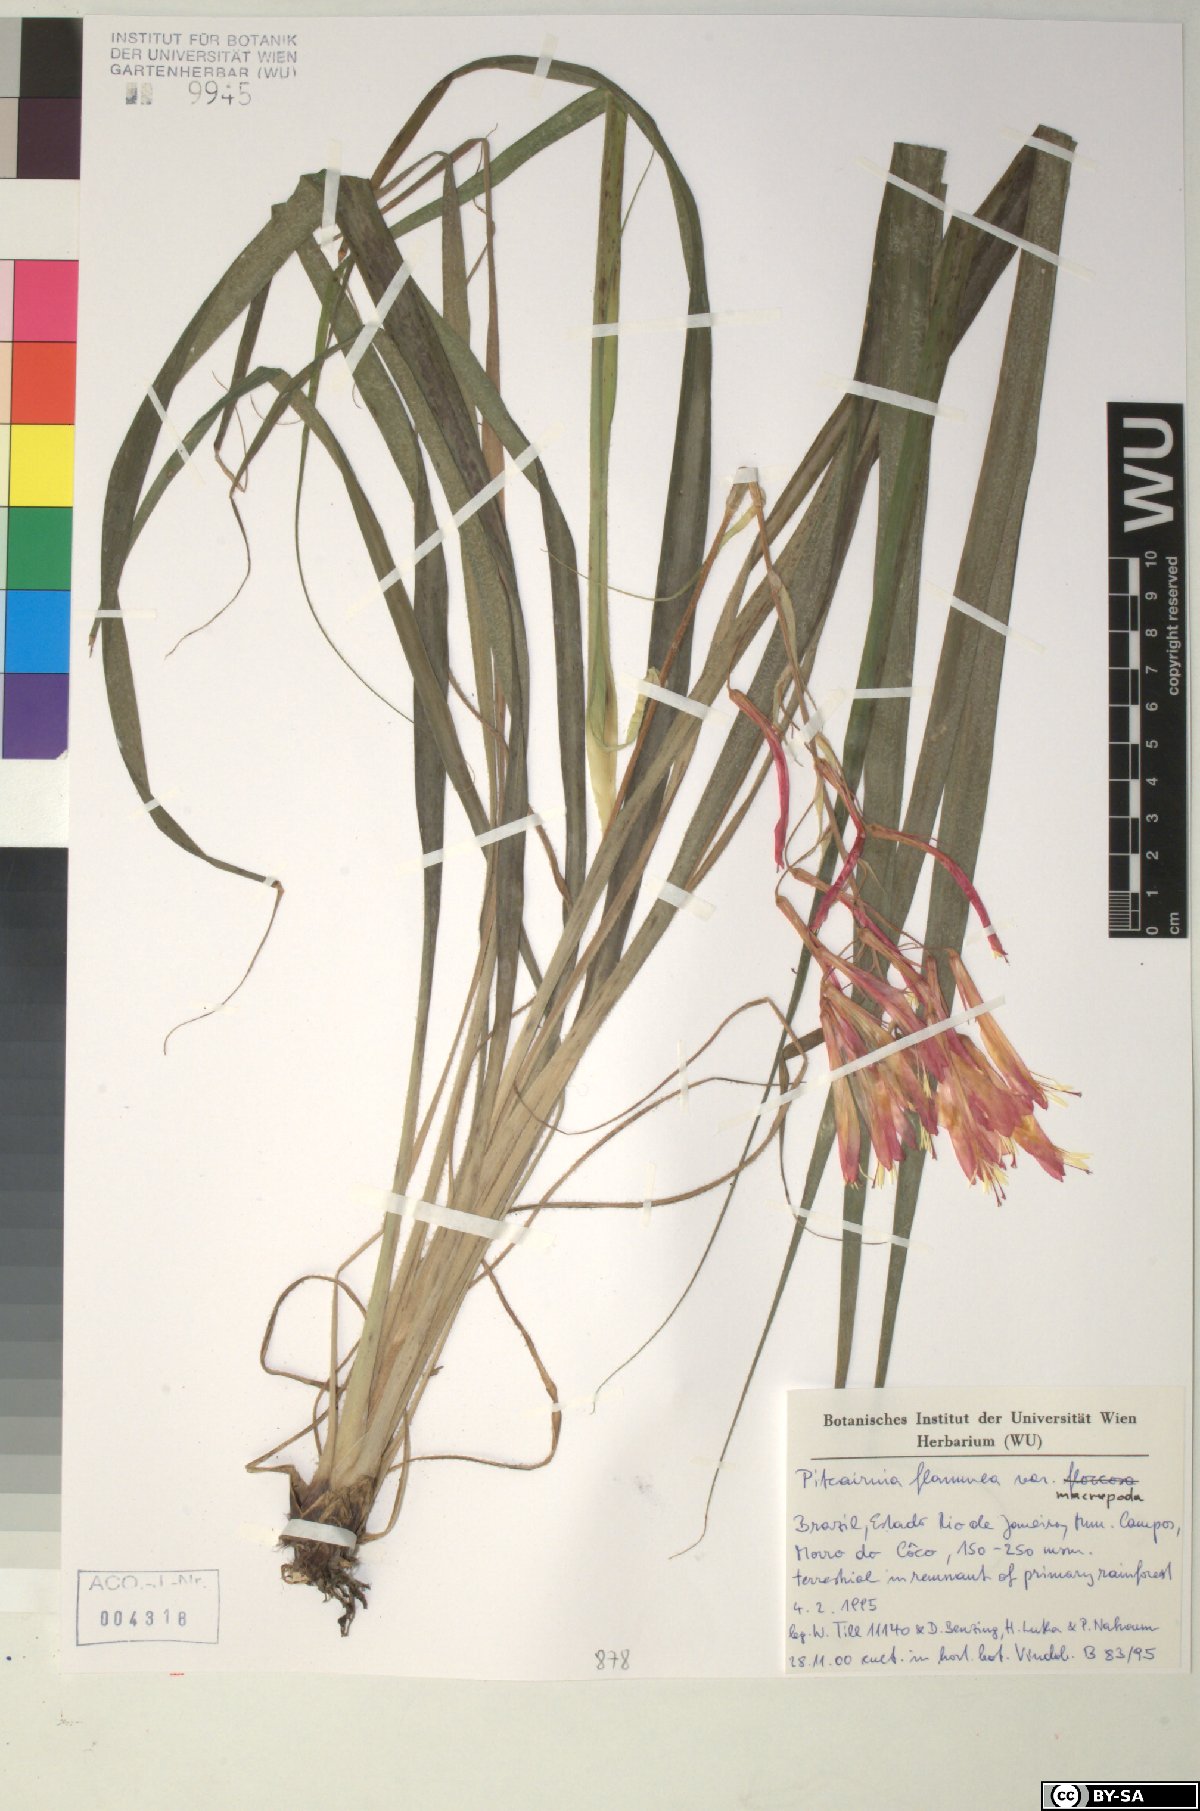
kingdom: Plantae
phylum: Tracheophyta
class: Liliopsida
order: Poales
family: Bromeliaceae
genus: Pitcairnia
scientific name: Pitcairnia flammea
